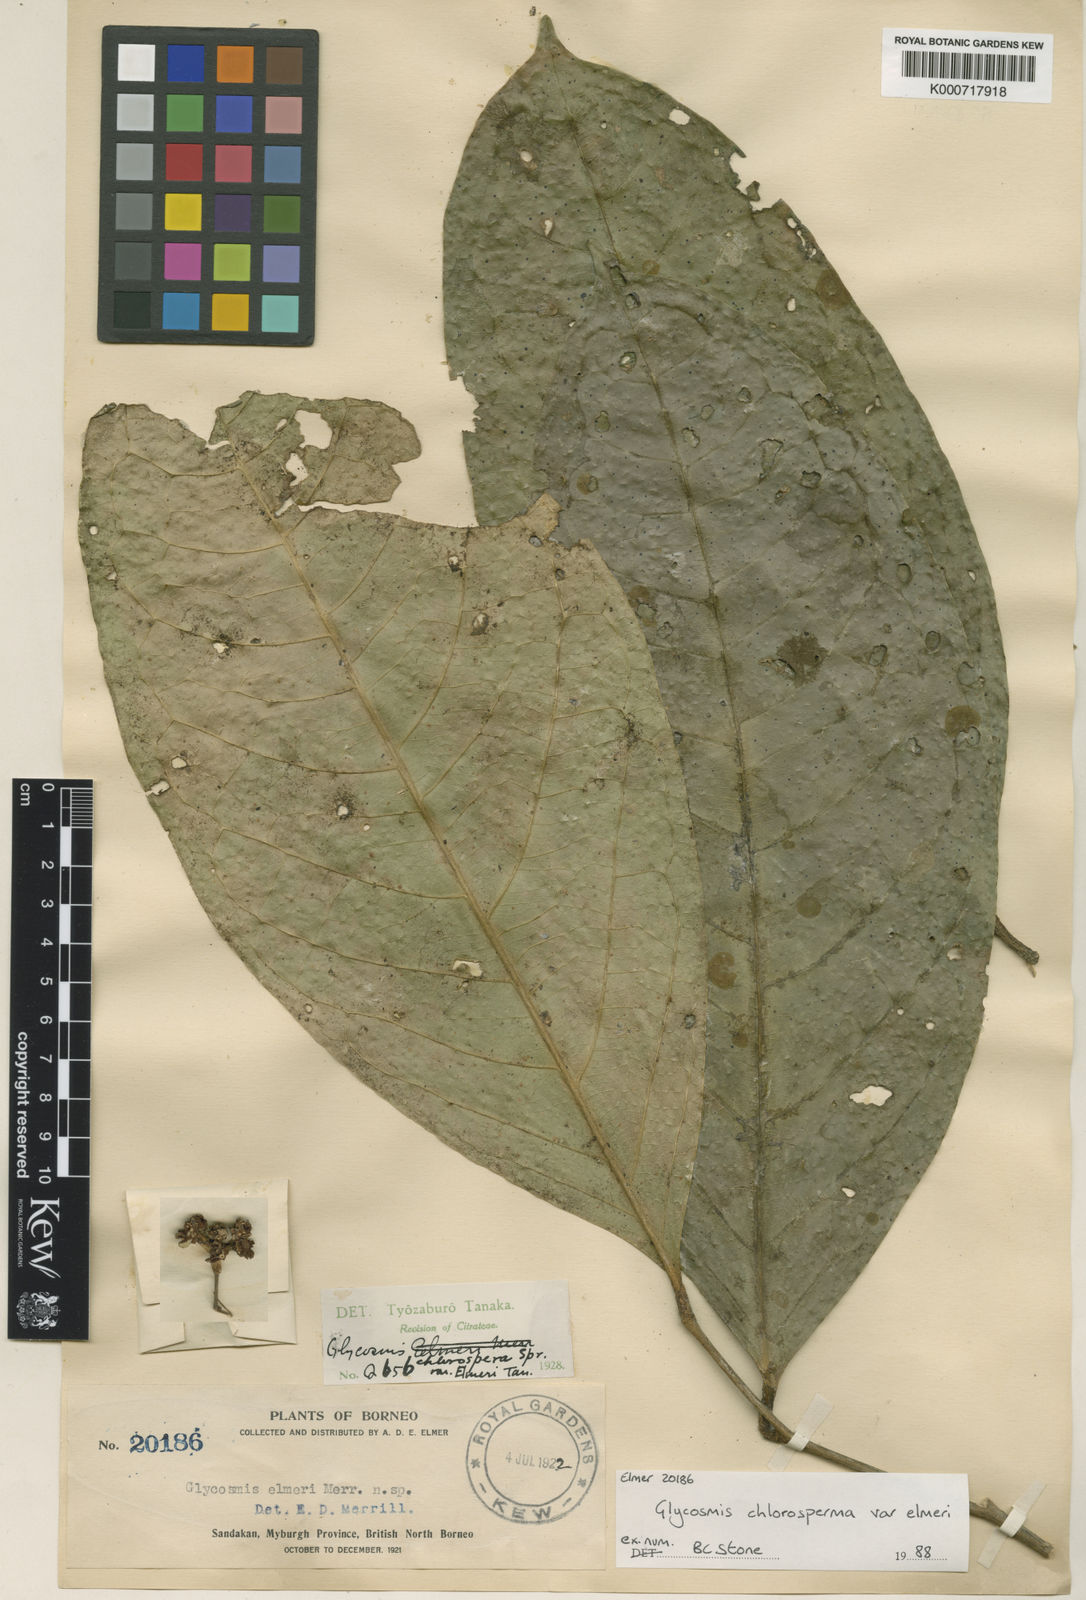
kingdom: Plantae
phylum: Tracheophyta
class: Magnoliopsida
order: Sapindales
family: Rutaceae
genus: Glycosmis
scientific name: Glycosmis chlorosperma
